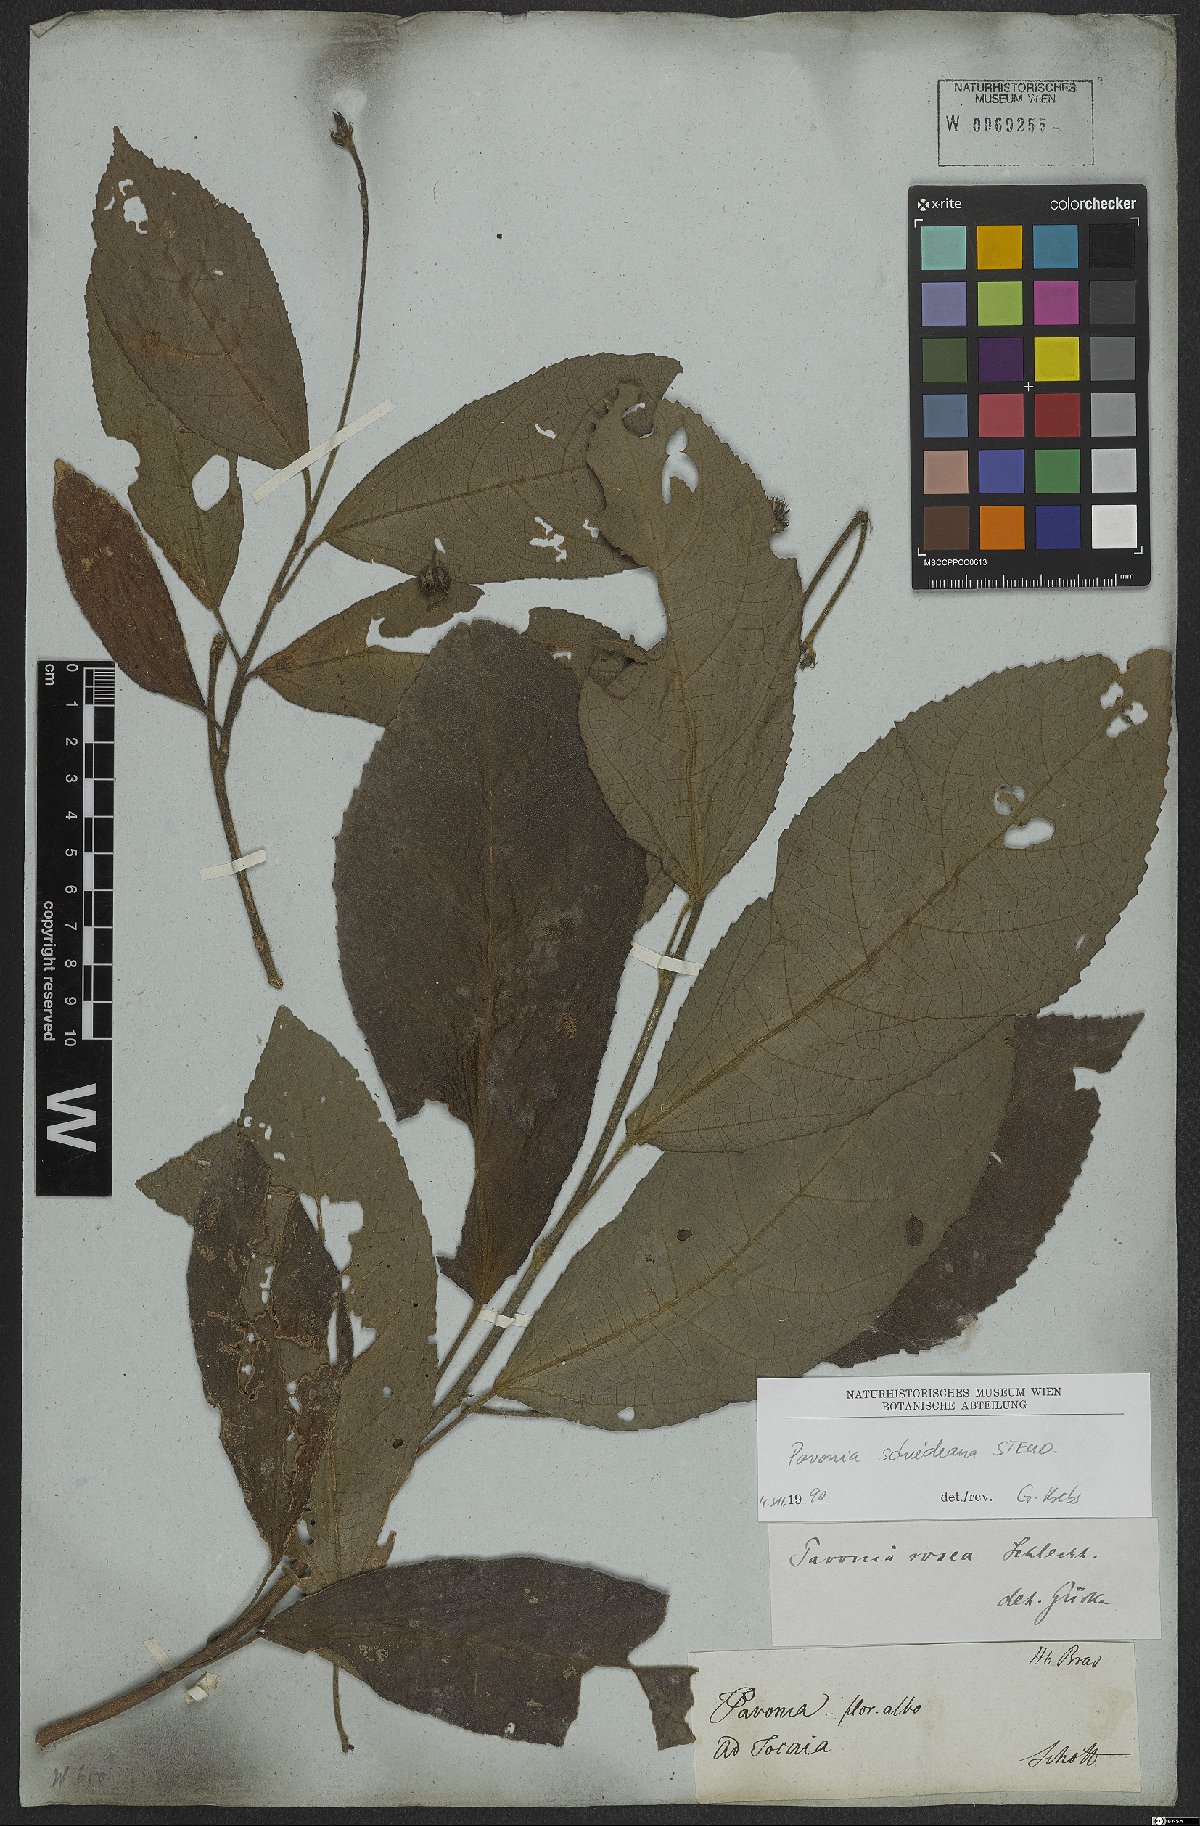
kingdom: Plantae
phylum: Tracheophyta
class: Magnoliopsida
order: Malvales
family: Malvaceae
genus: Pavonia
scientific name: Pavonia schiedeana
